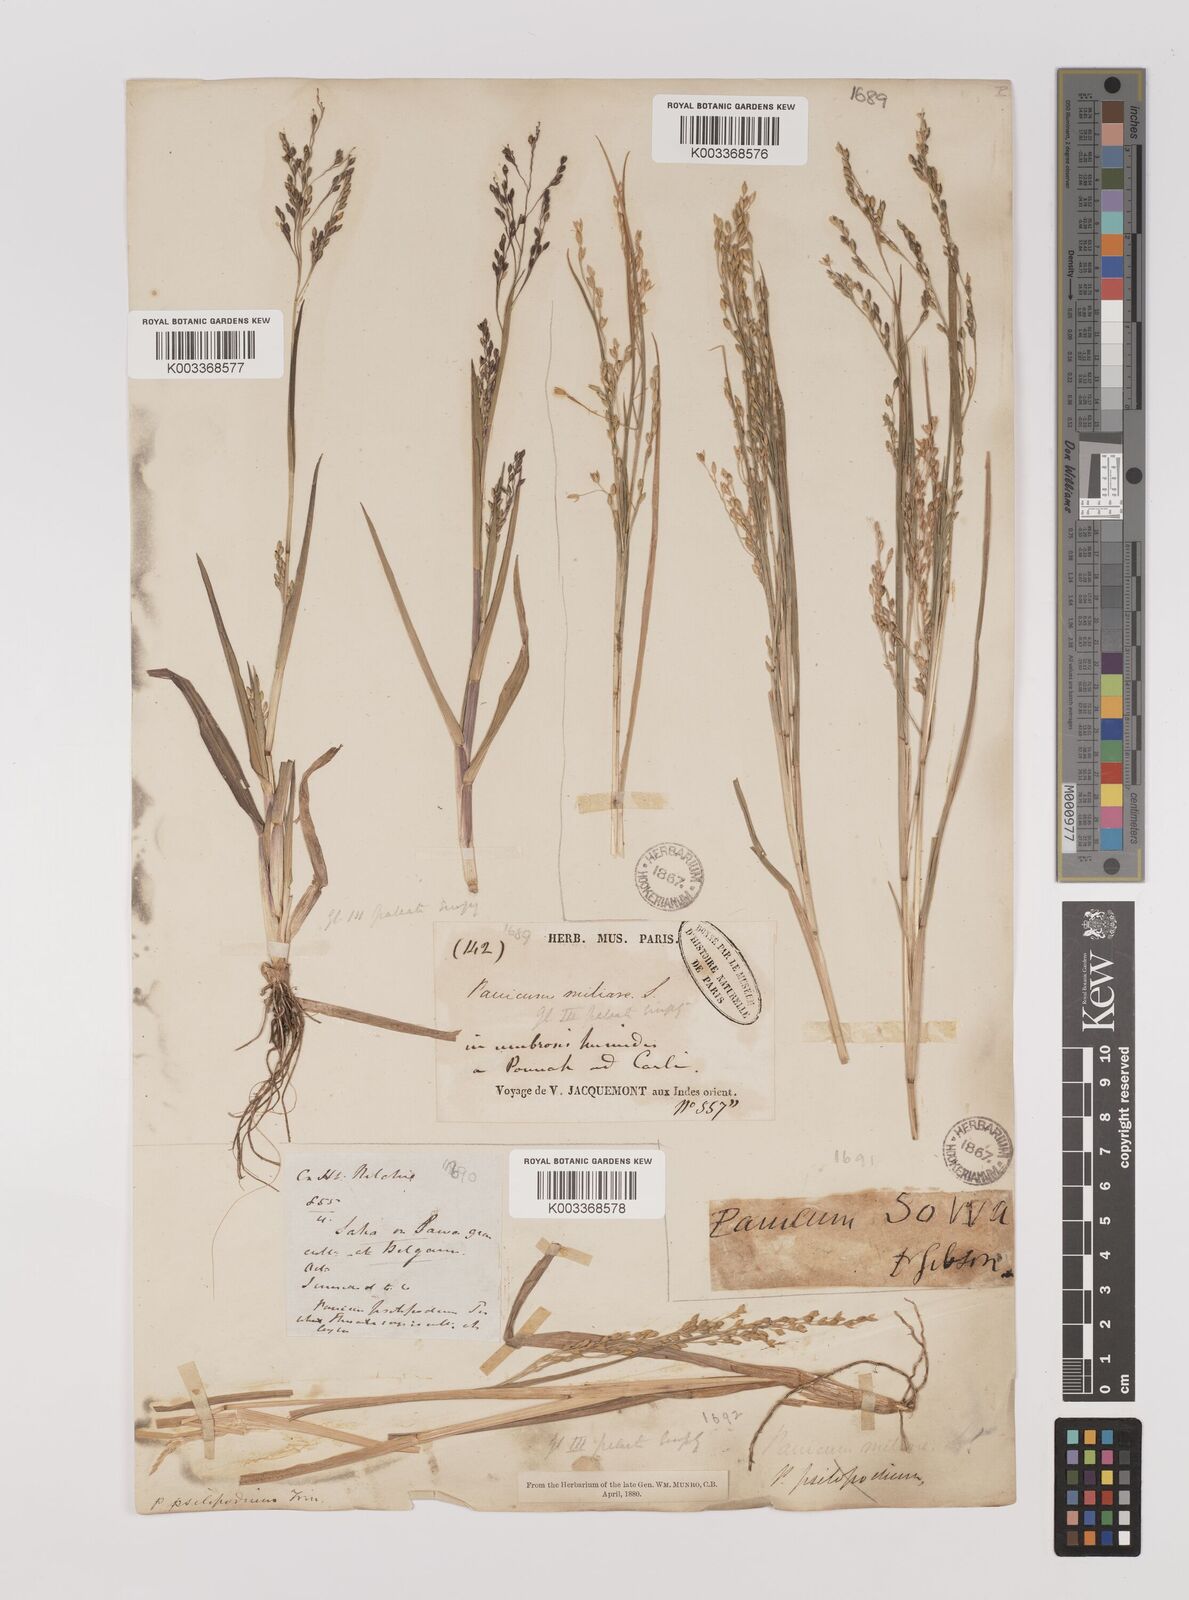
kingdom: Plantae
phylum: Tracheophyta
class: Liliopsida
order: Poales
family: Poaceae
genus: Panicum
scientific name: Panicum sumatrense
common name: Little millet
